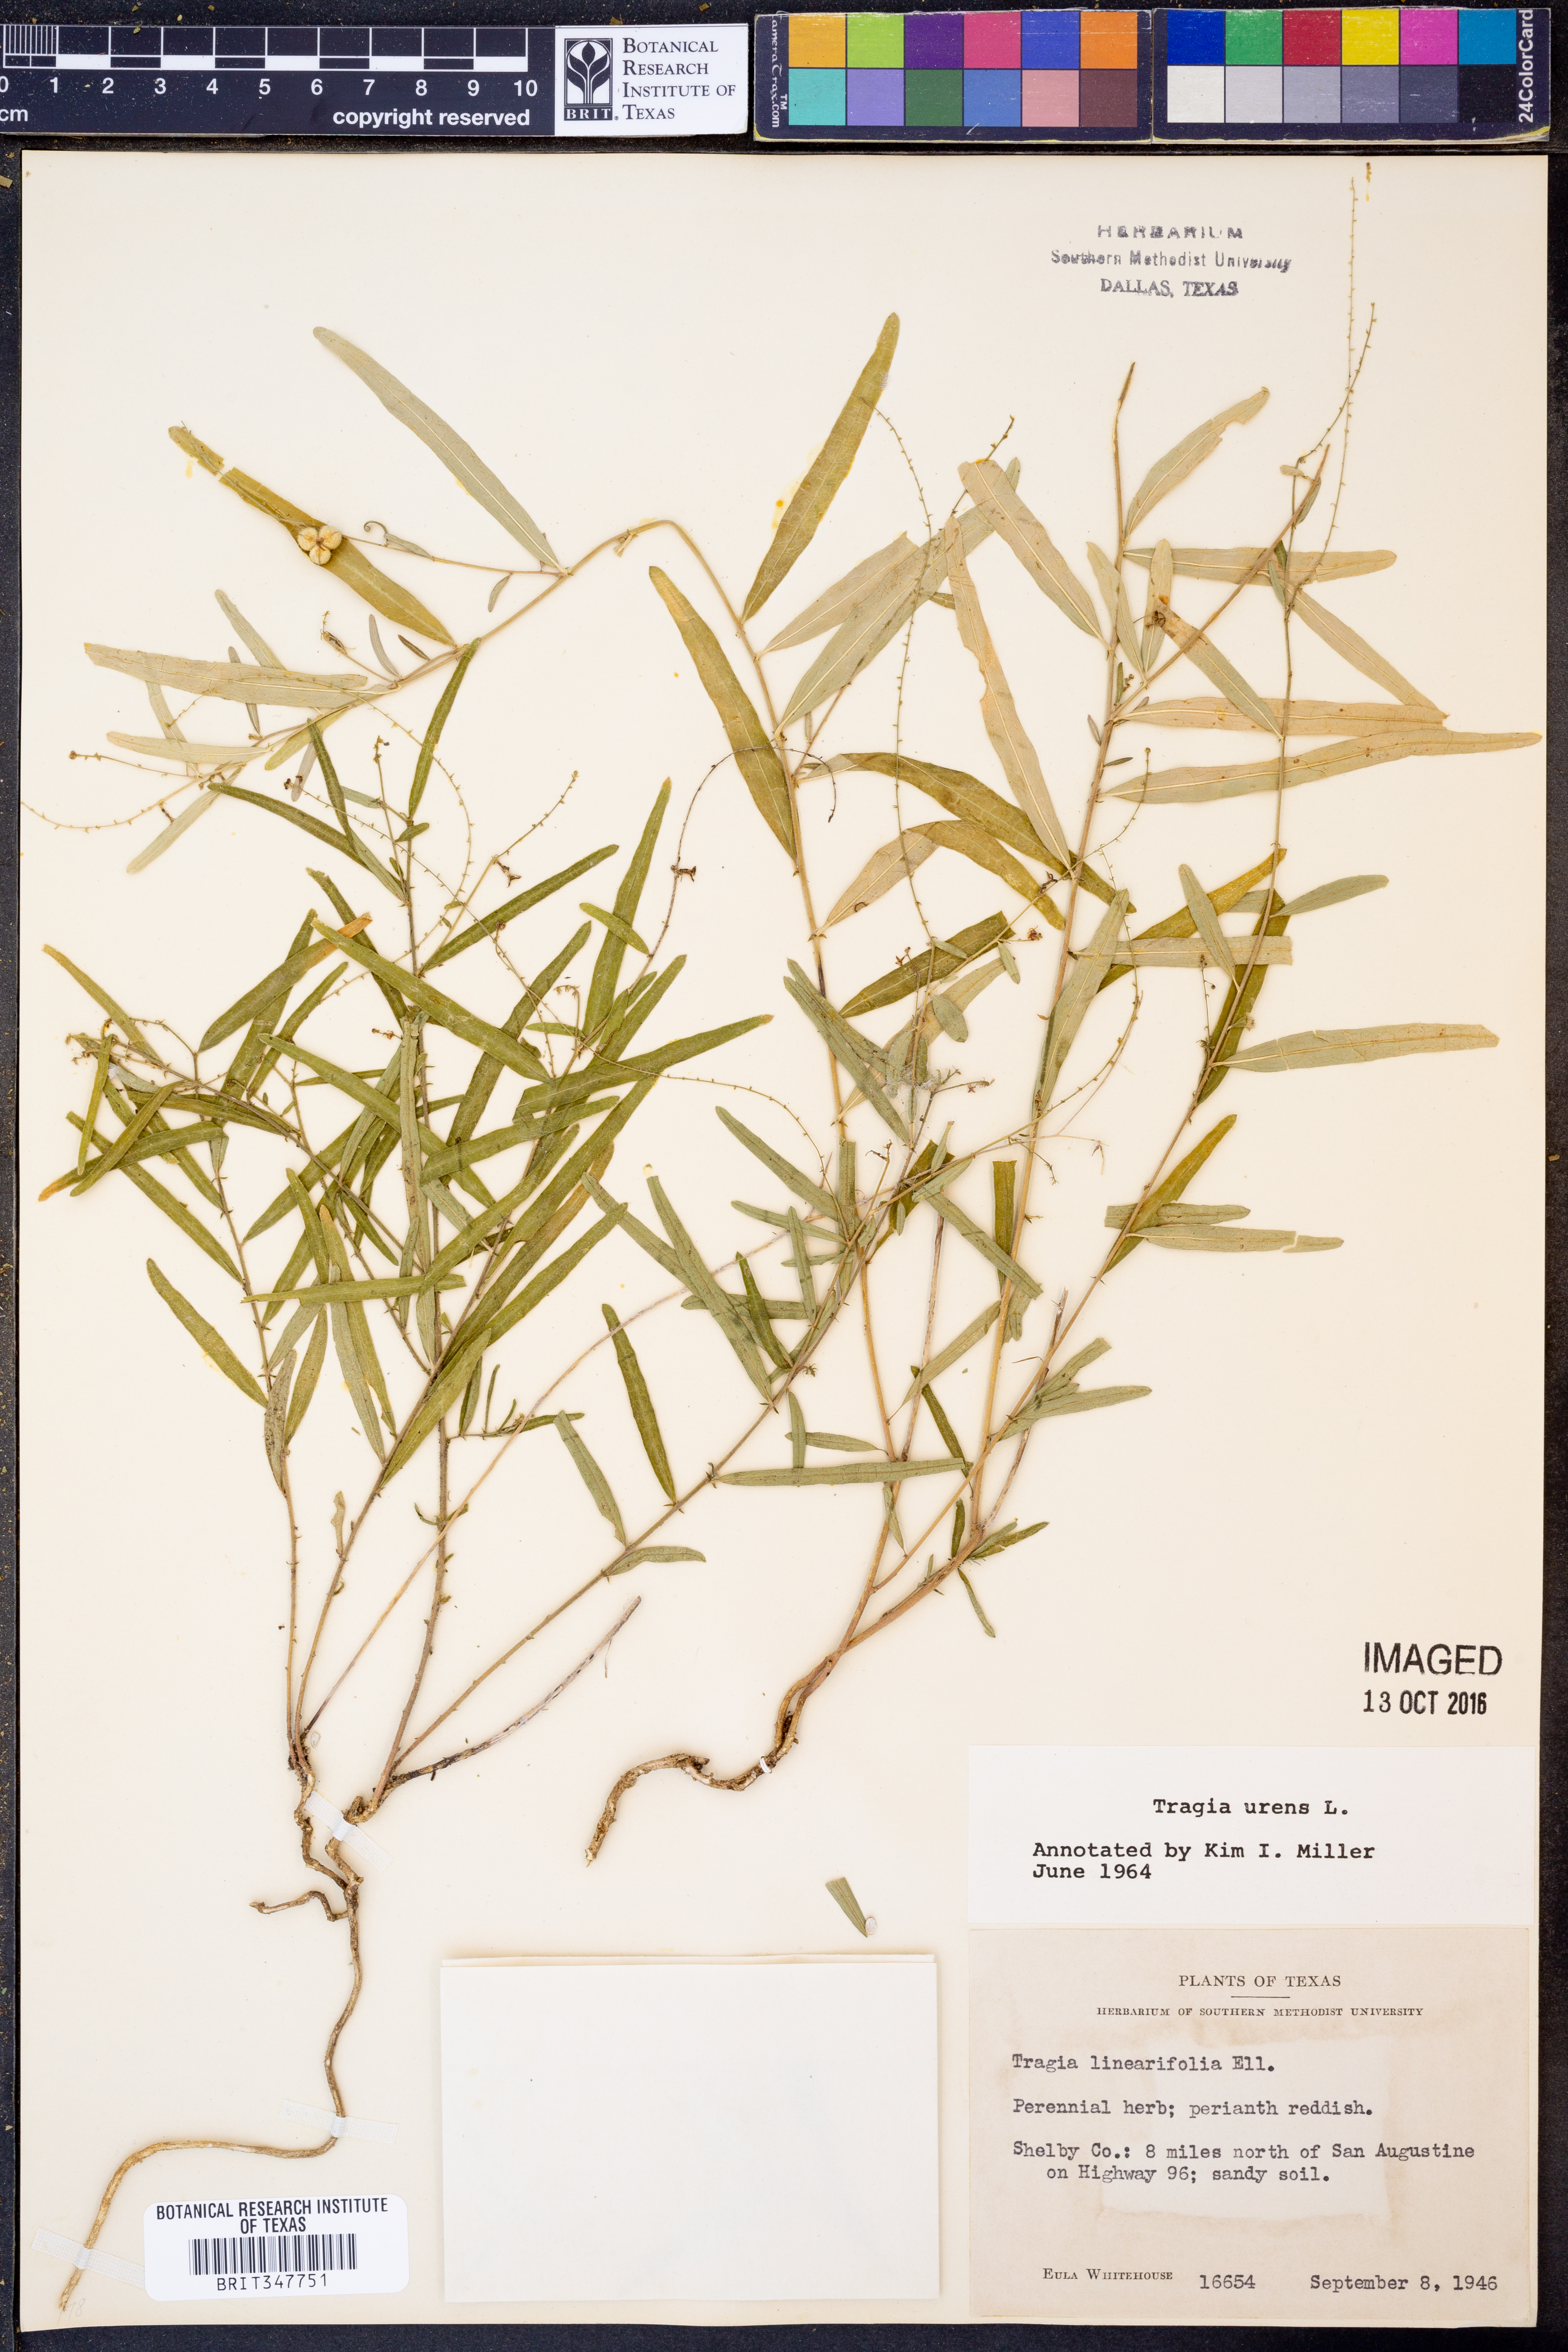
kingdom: Plantae
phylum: Tracheophyta
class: Magnoliopsida
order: Malpighiales
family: Euphorbiaceae
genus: Tragia
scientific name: Tragia urens
